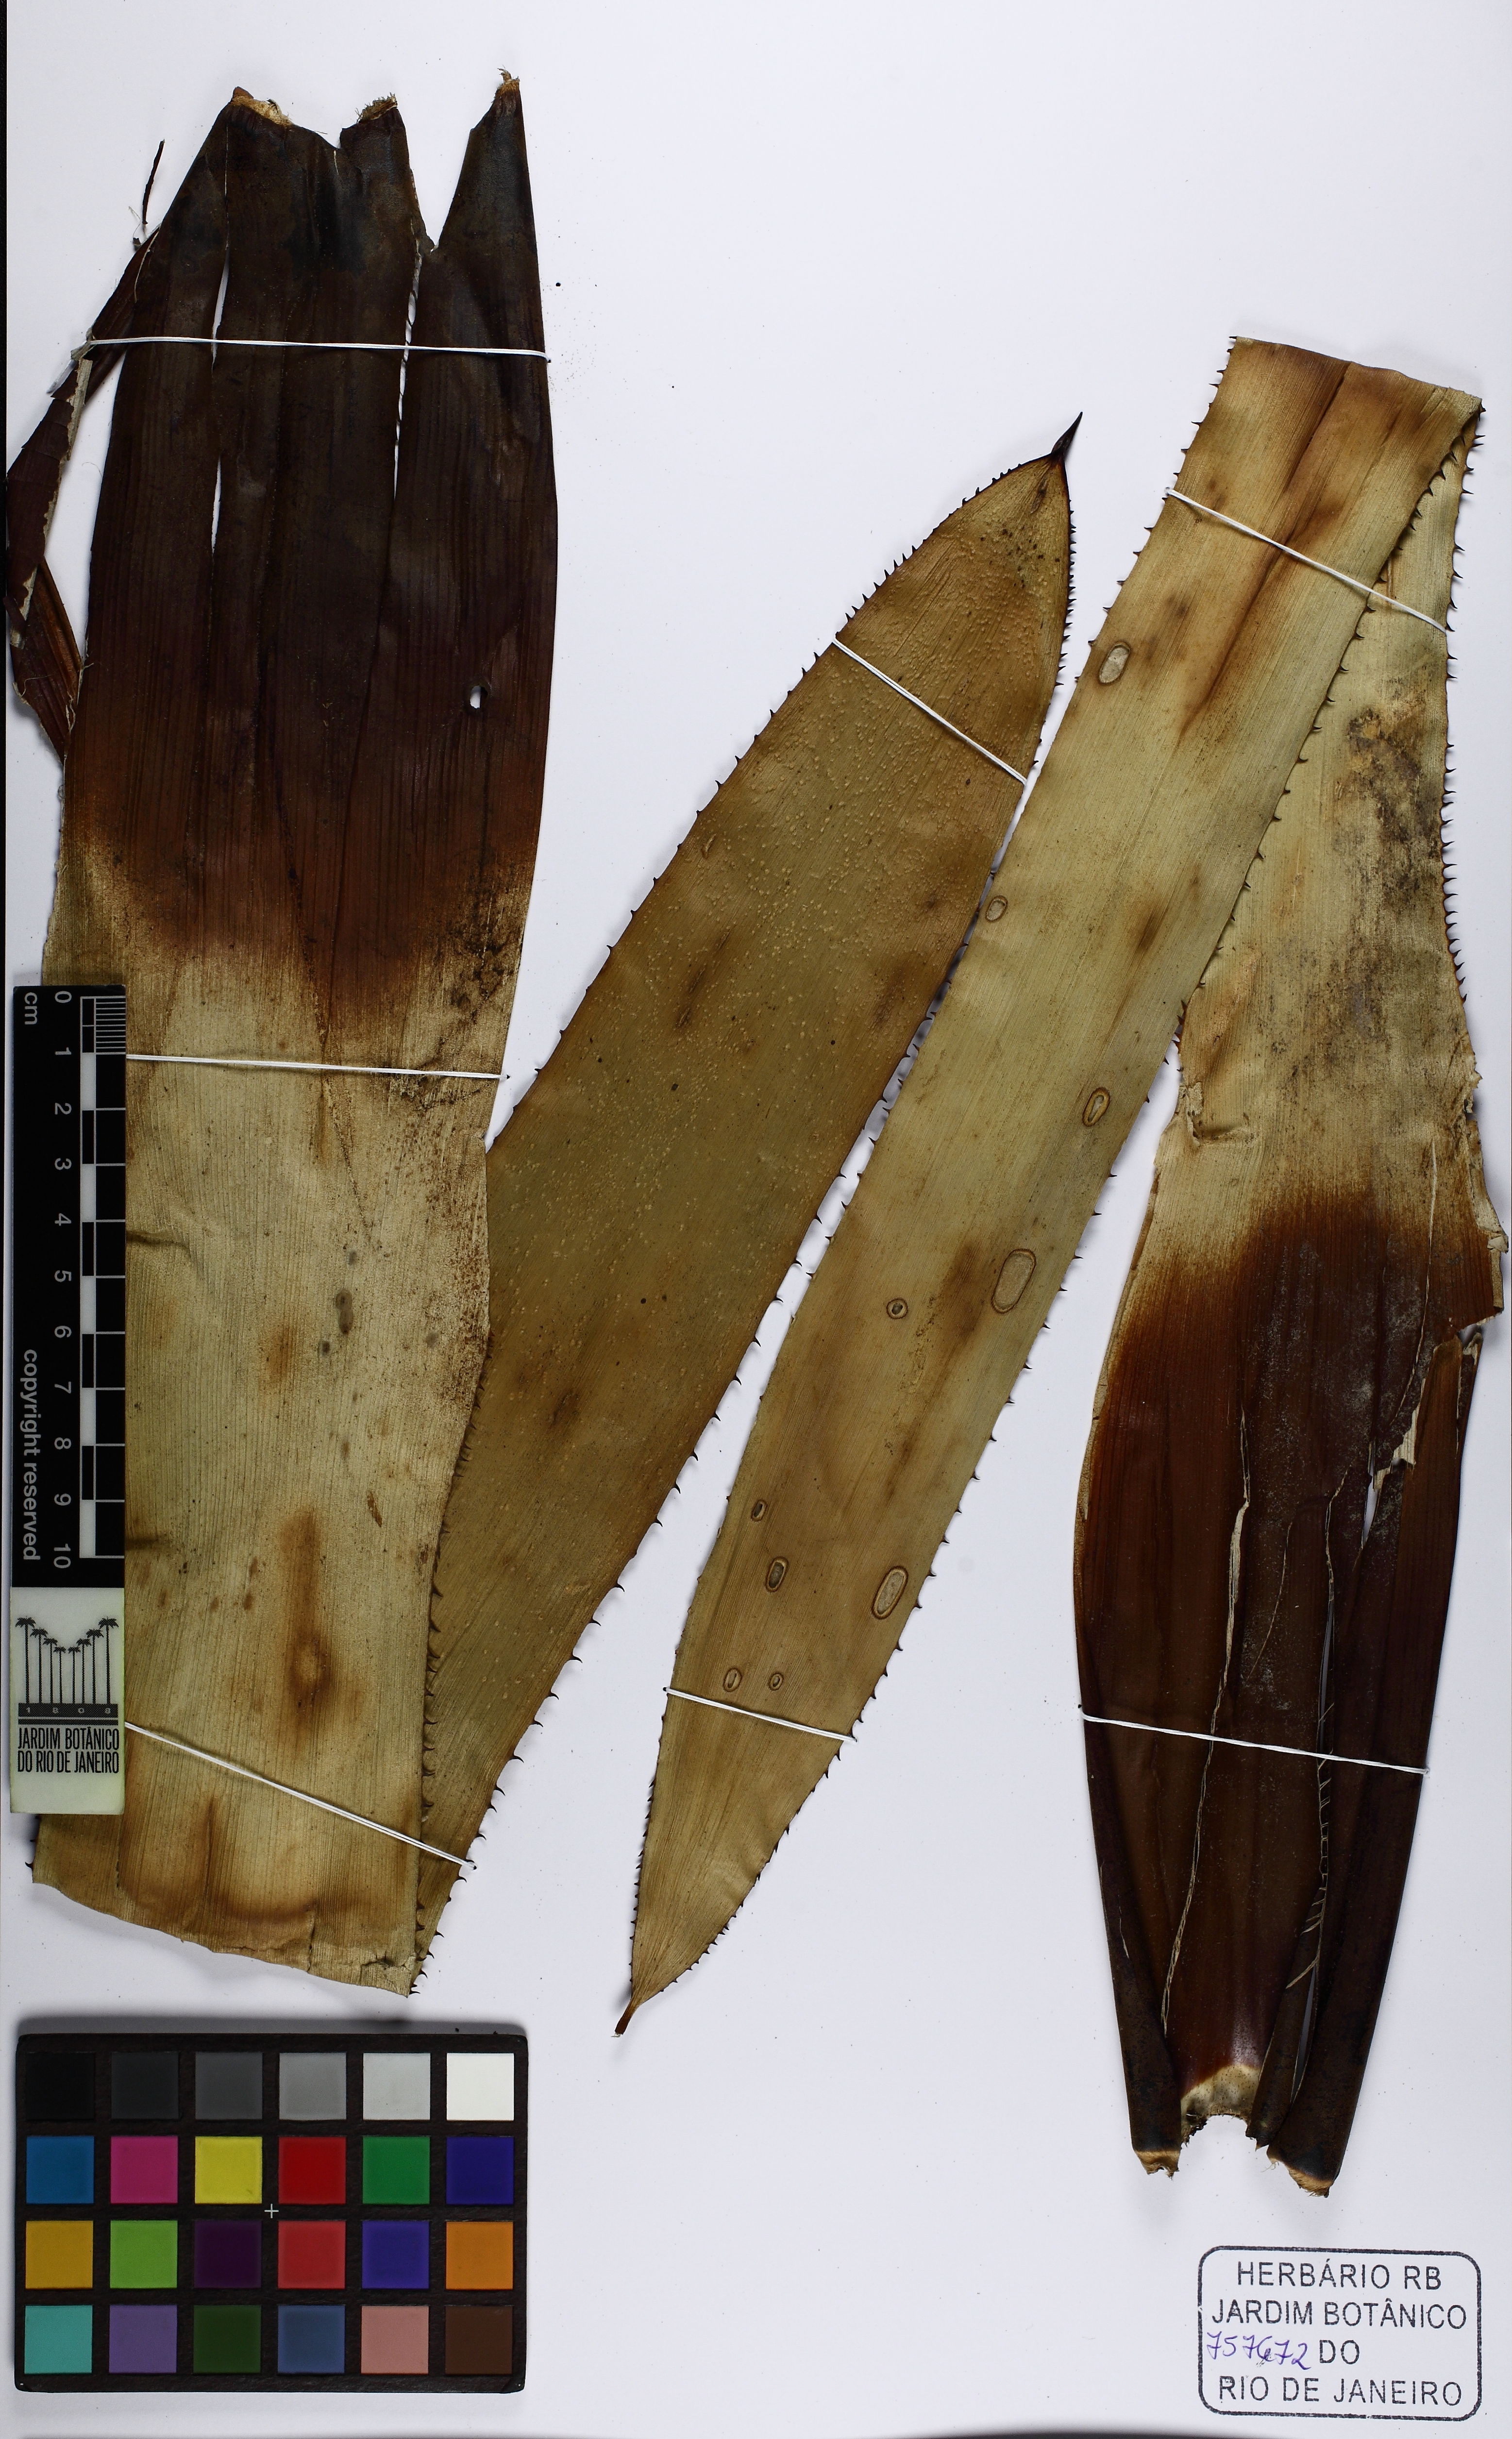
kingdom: Plantae
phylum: Tracheophyta
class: Liliopsida
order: Poales
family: Bromeliaceae
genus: Hohenbergia
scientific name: Hohenbergia ridleyi
